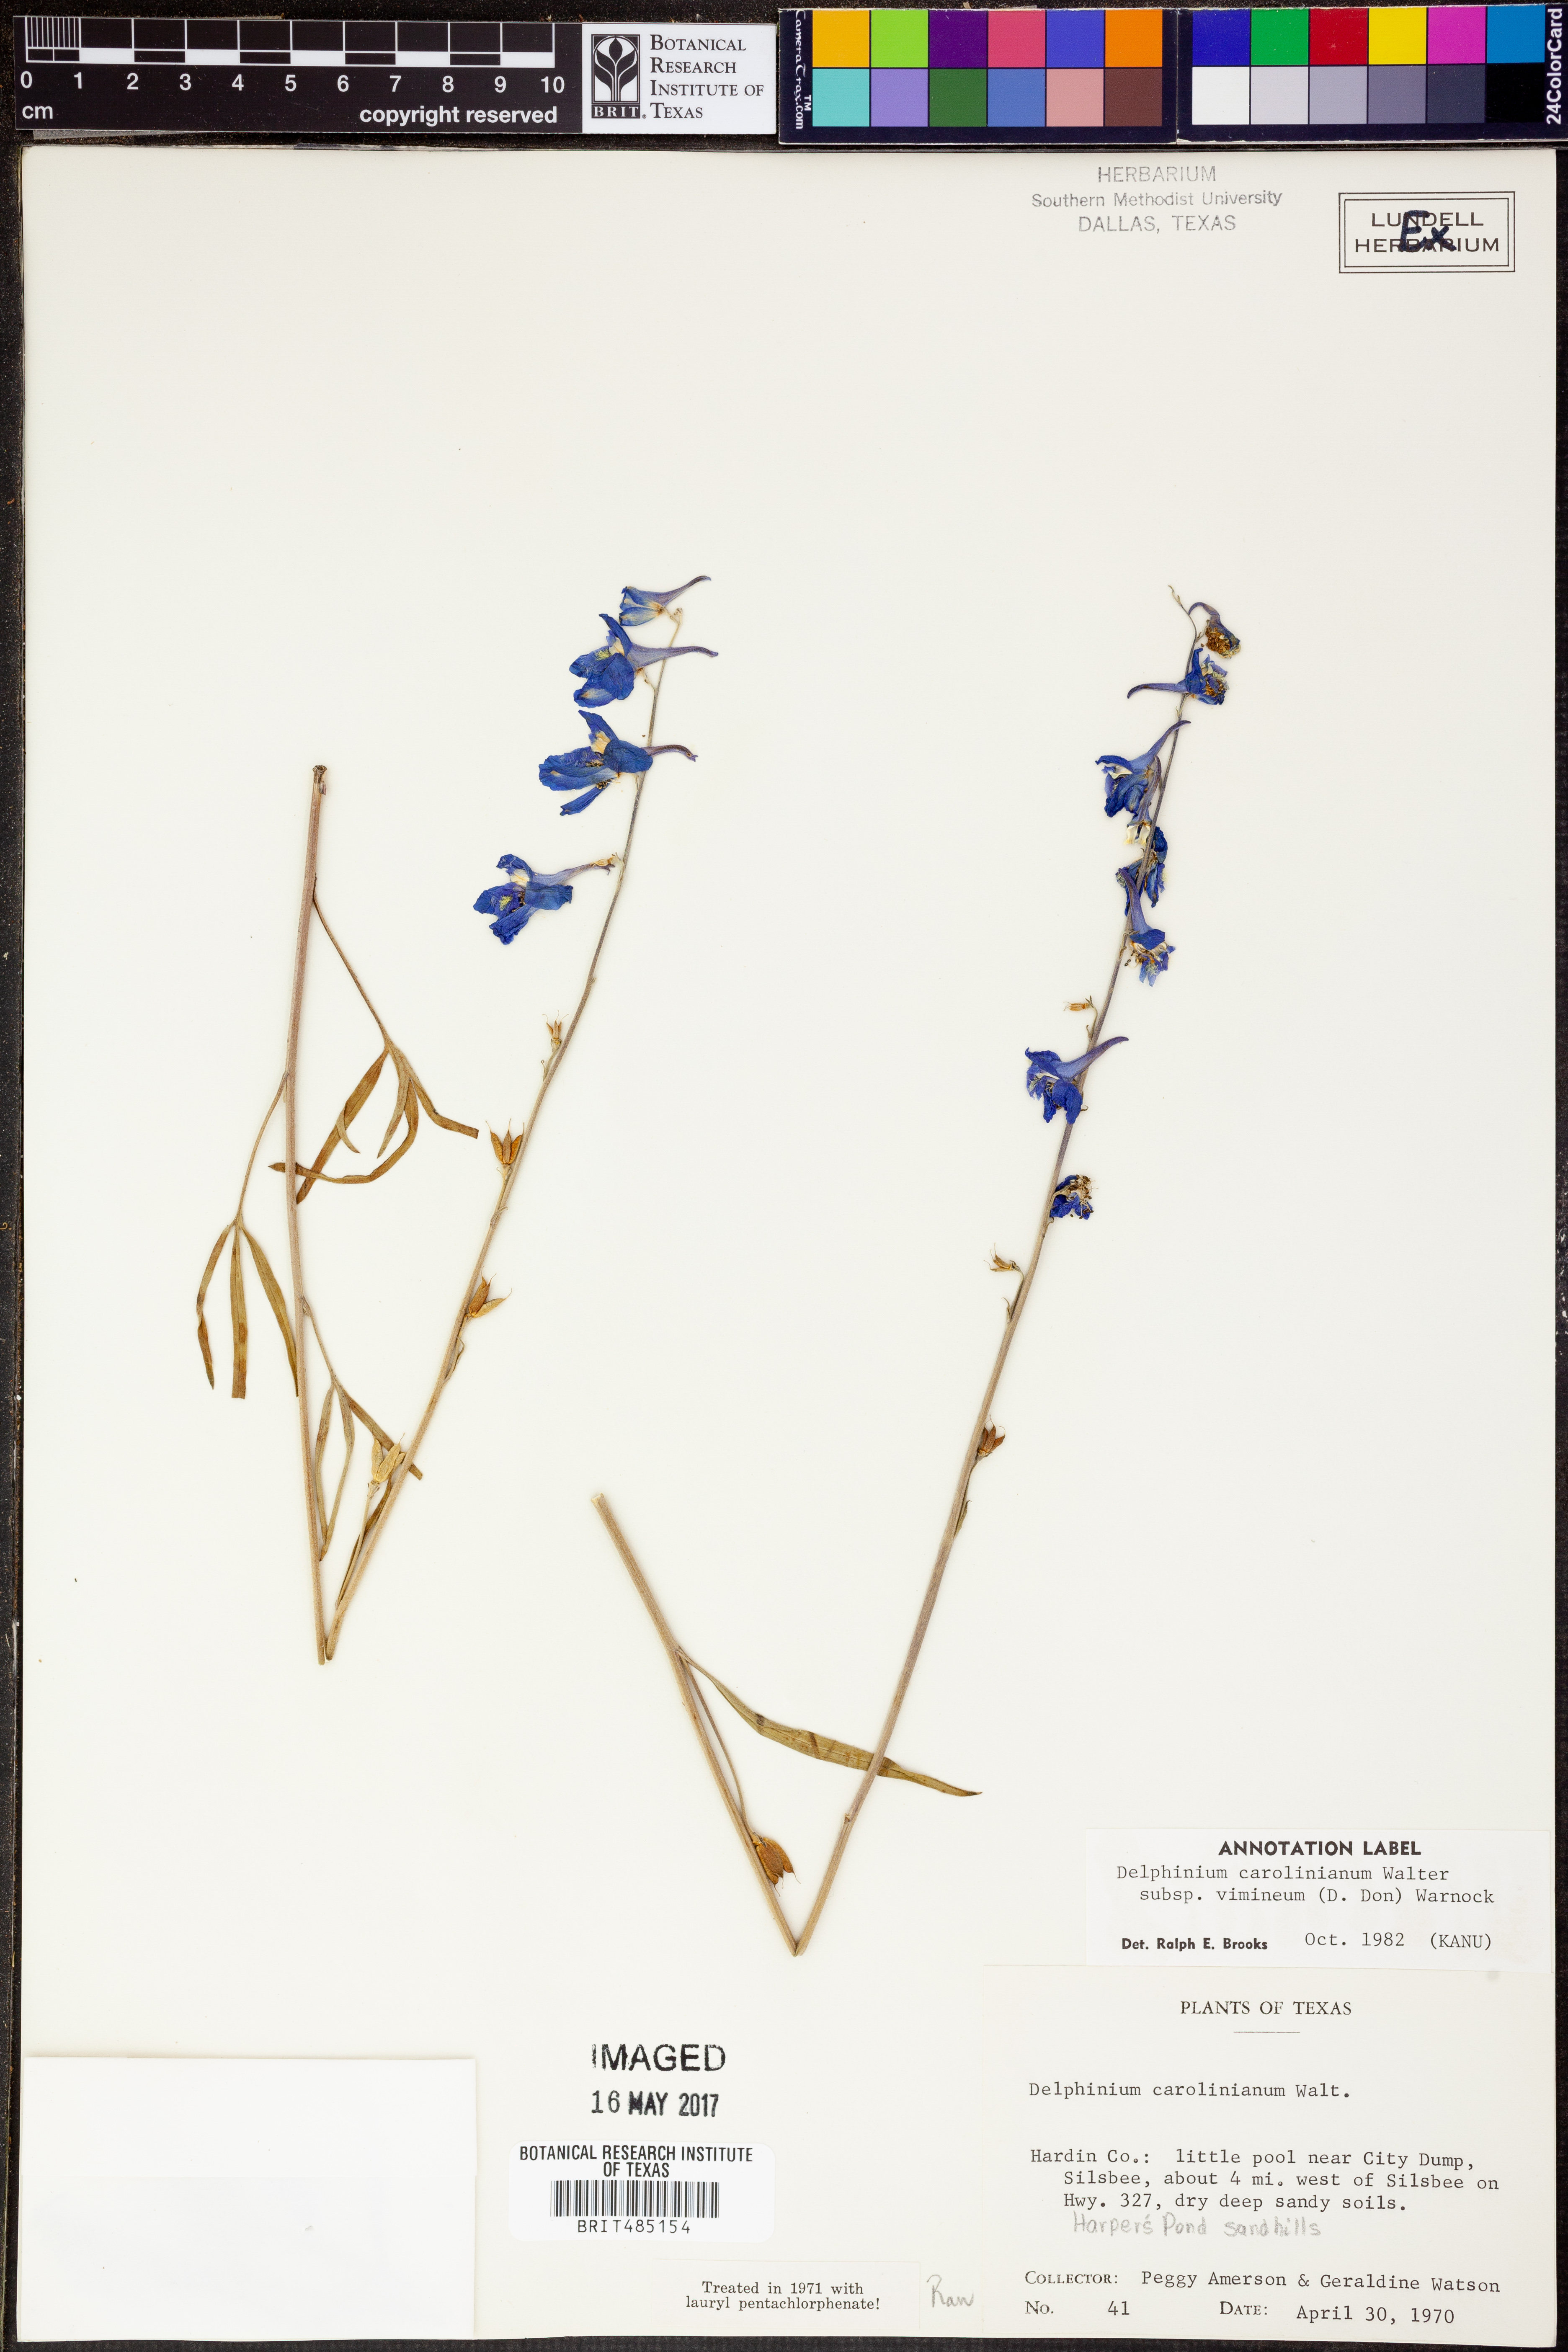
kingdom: Plantae
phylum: Tracheophyta
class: Magnoliopsida
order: Ranunculales
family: Ranunculaceae
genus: Delphinium
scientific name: Delphinium carolinianum
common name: Carolina larkspur
